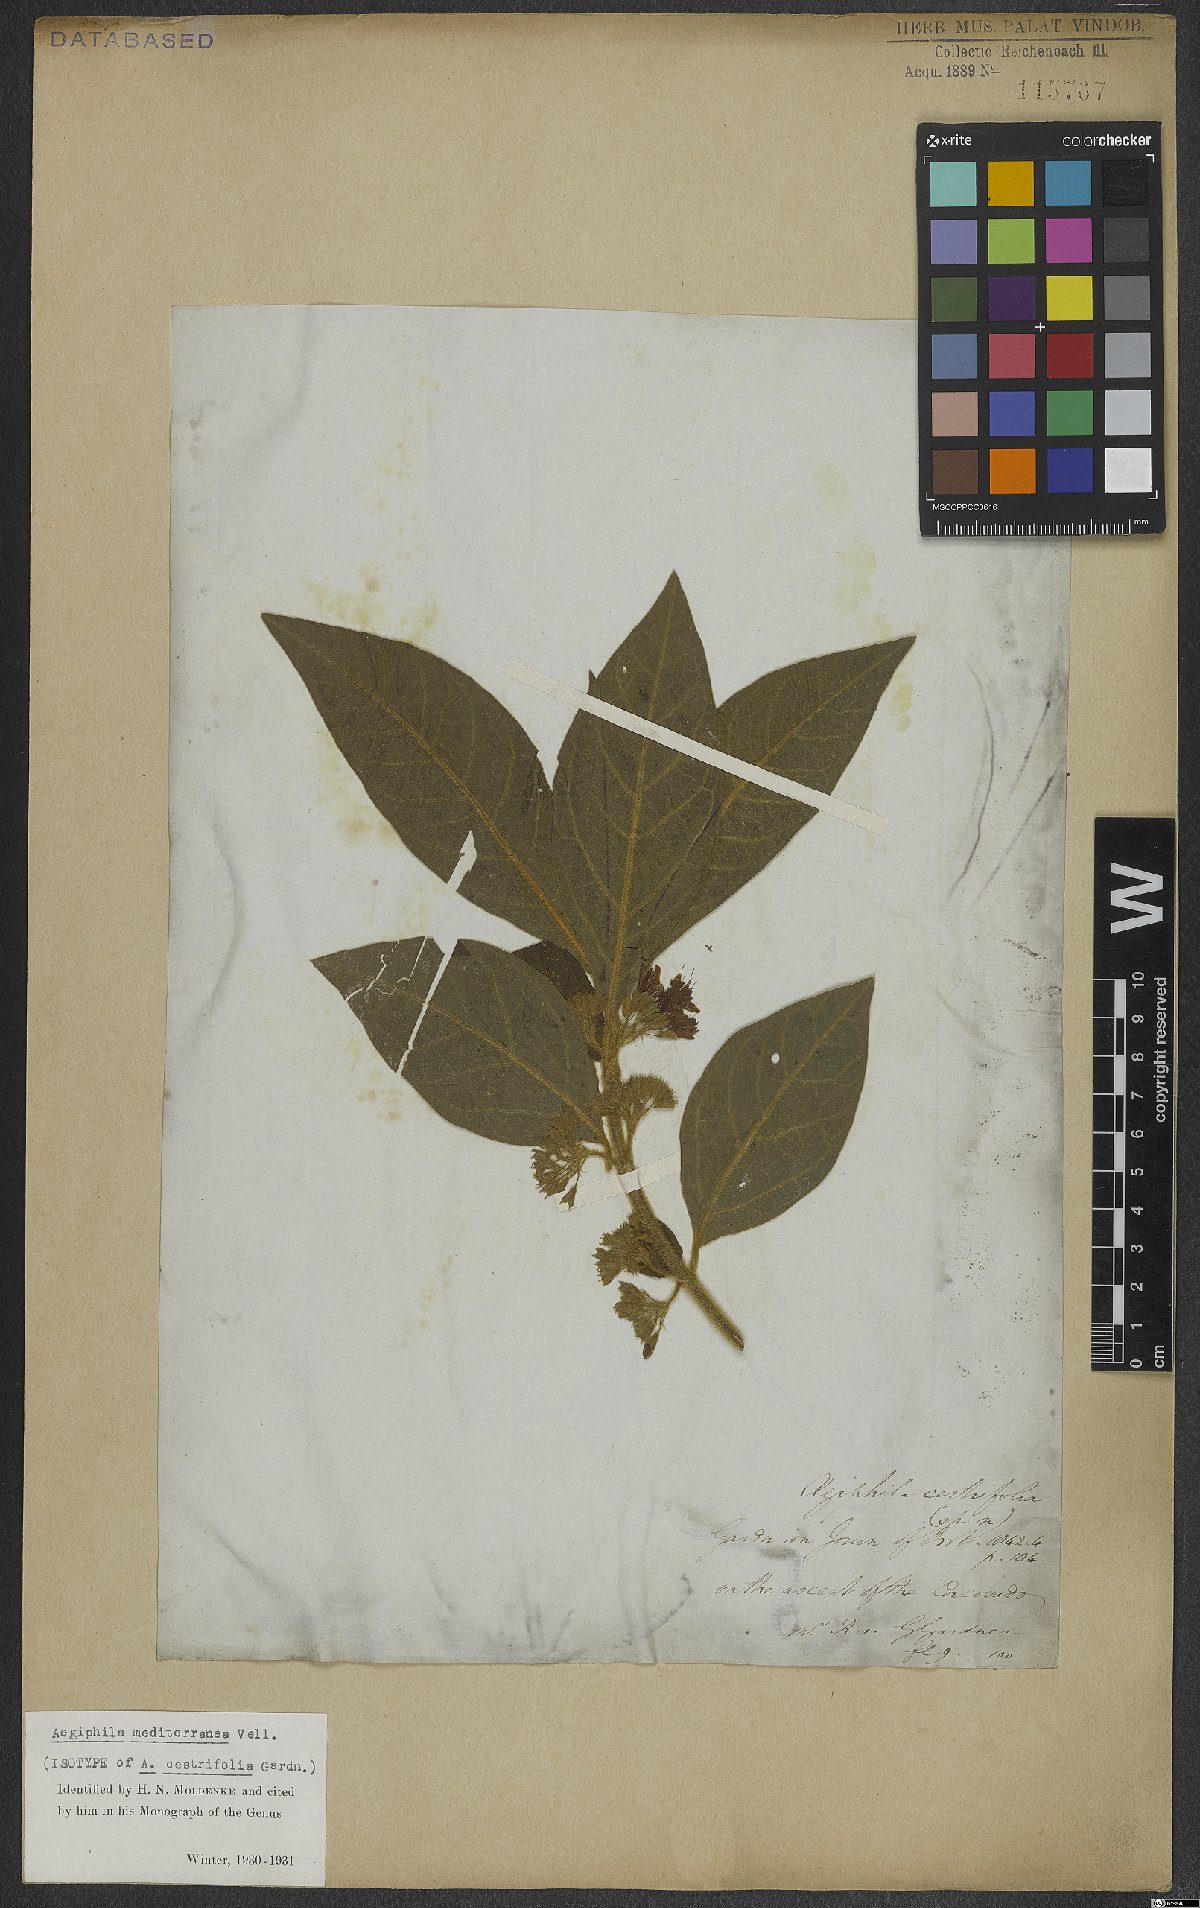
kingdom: Plantae
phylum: Tracheophyta
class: Magnoliopsida
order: Lamiales
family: Lamiaceae
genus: Aegiphila
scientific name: Aegiphila mediterranea
